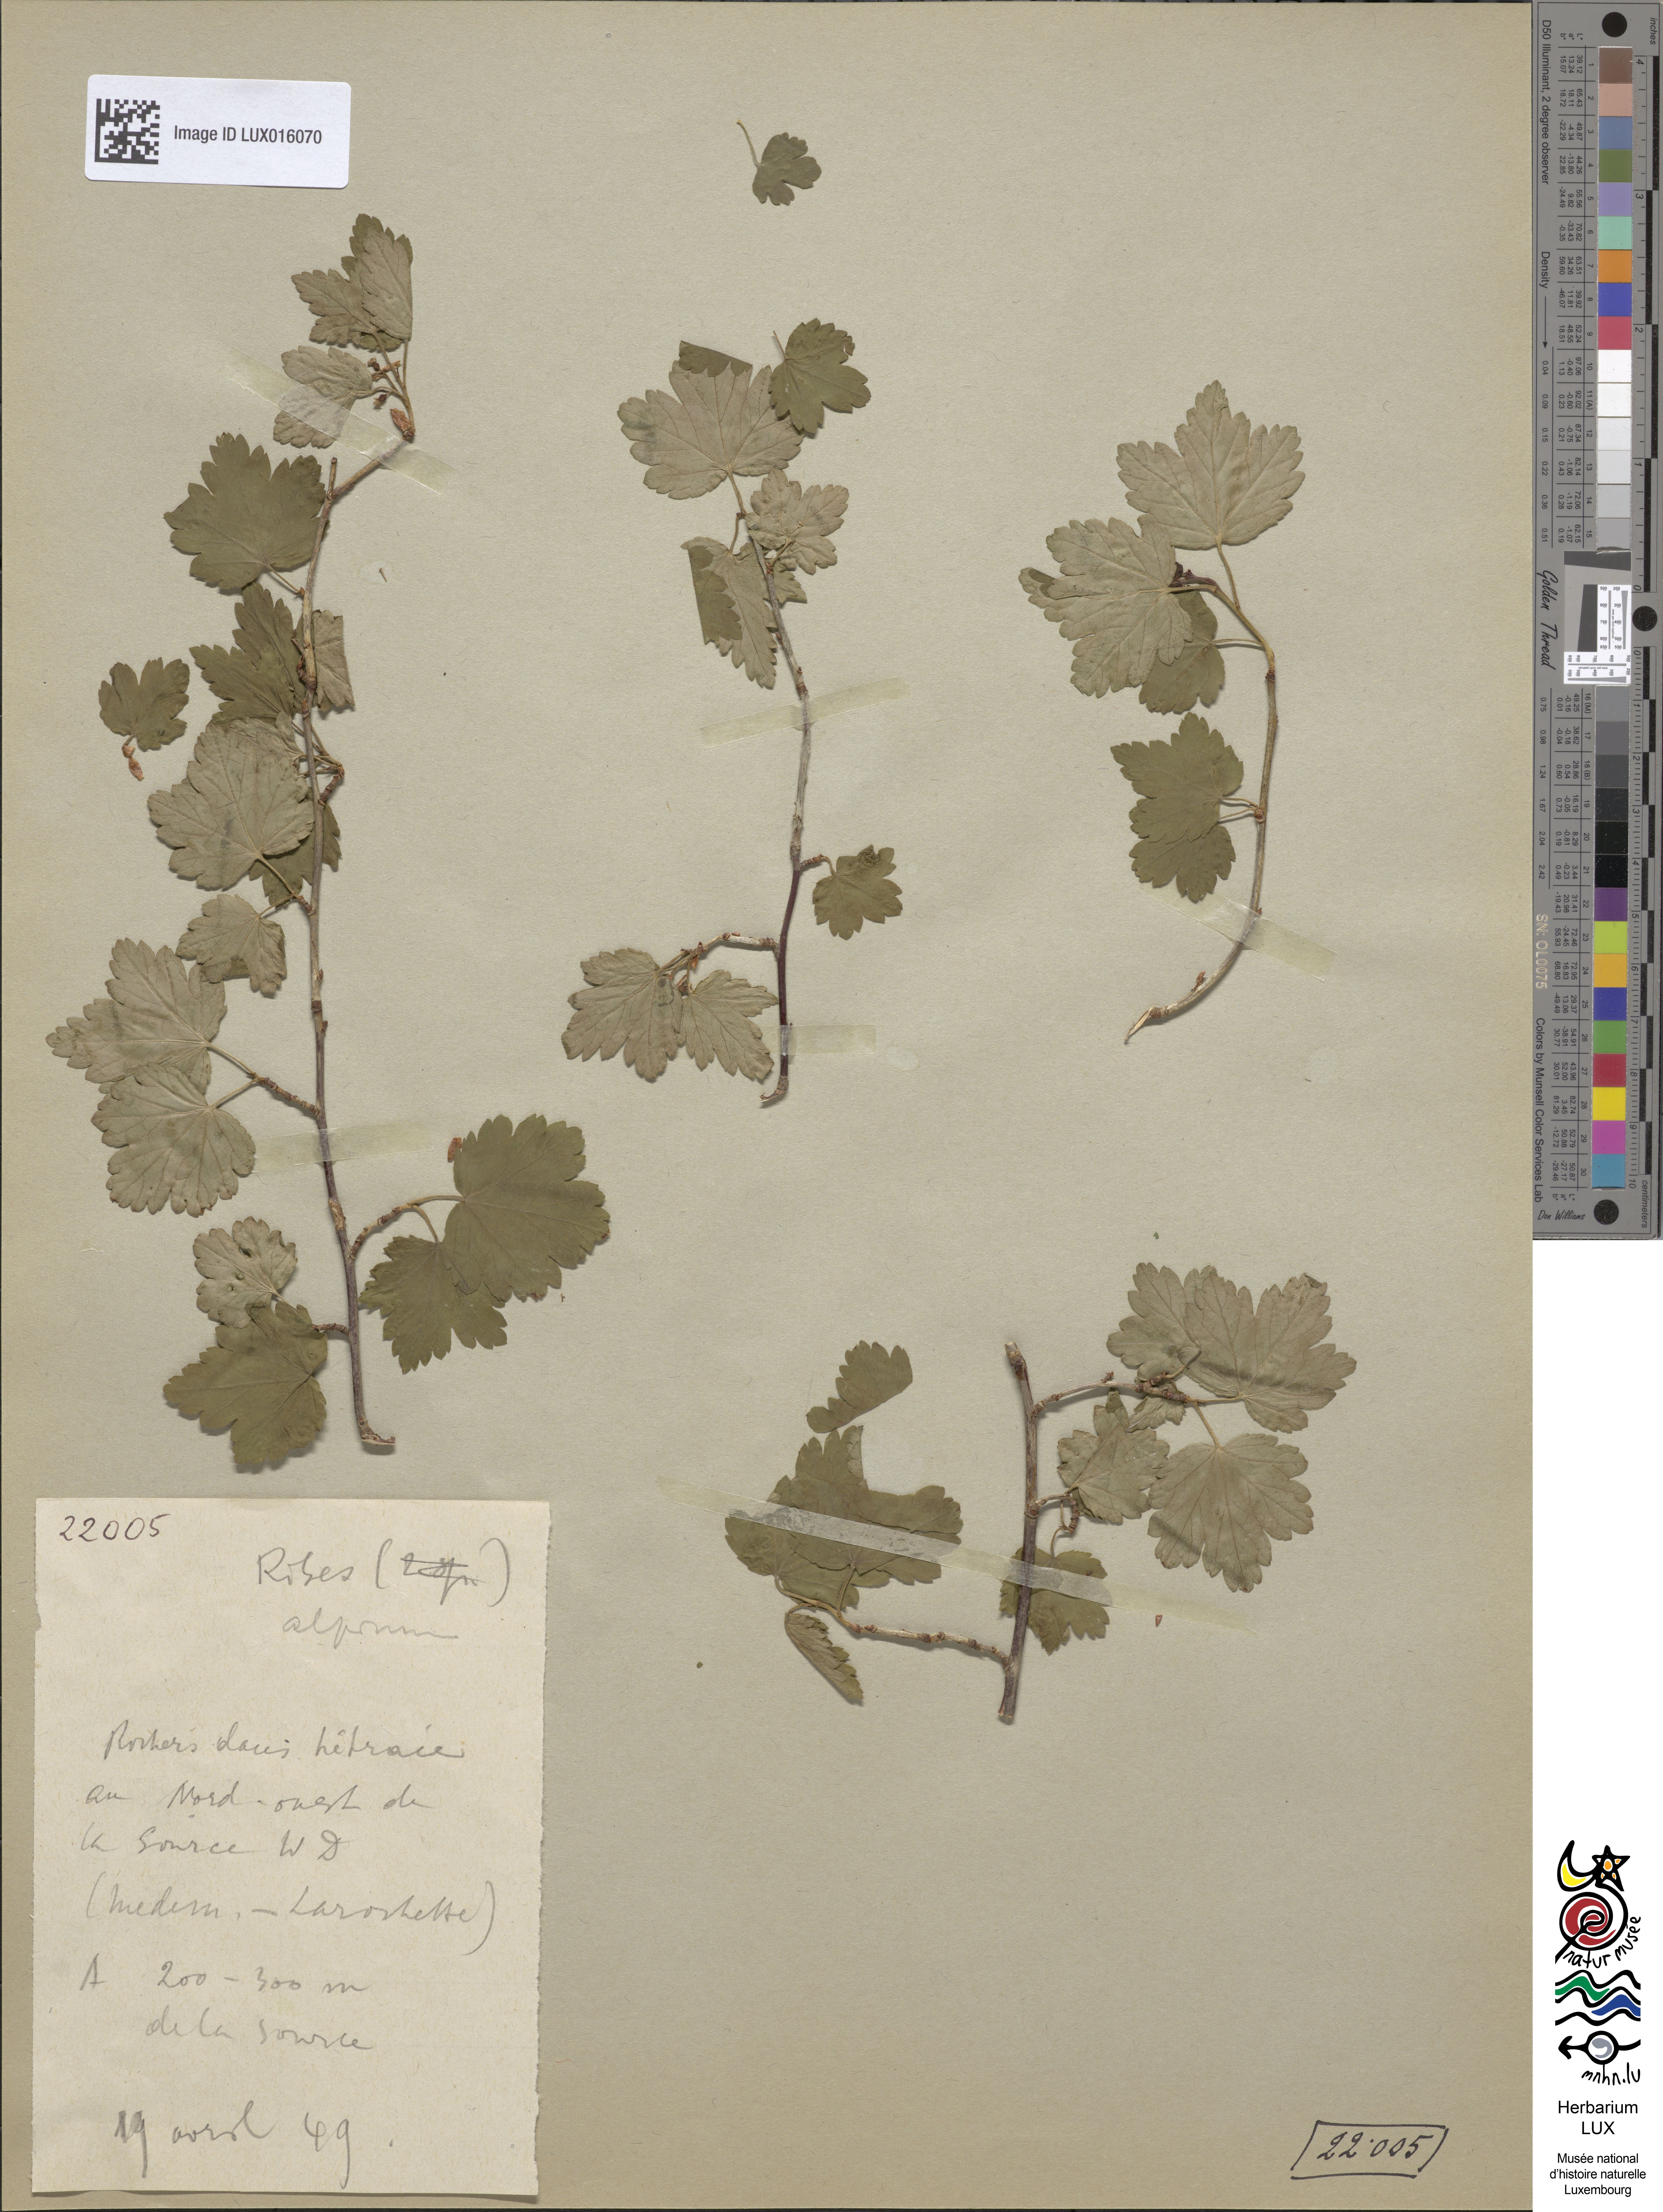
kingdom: Plantae
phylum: Tracheophyta
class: Magnoliopsida
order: Saxifragales
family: Grossulariaceae
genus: Ribes
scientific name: Ribes alpinum
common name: Alpine currant
